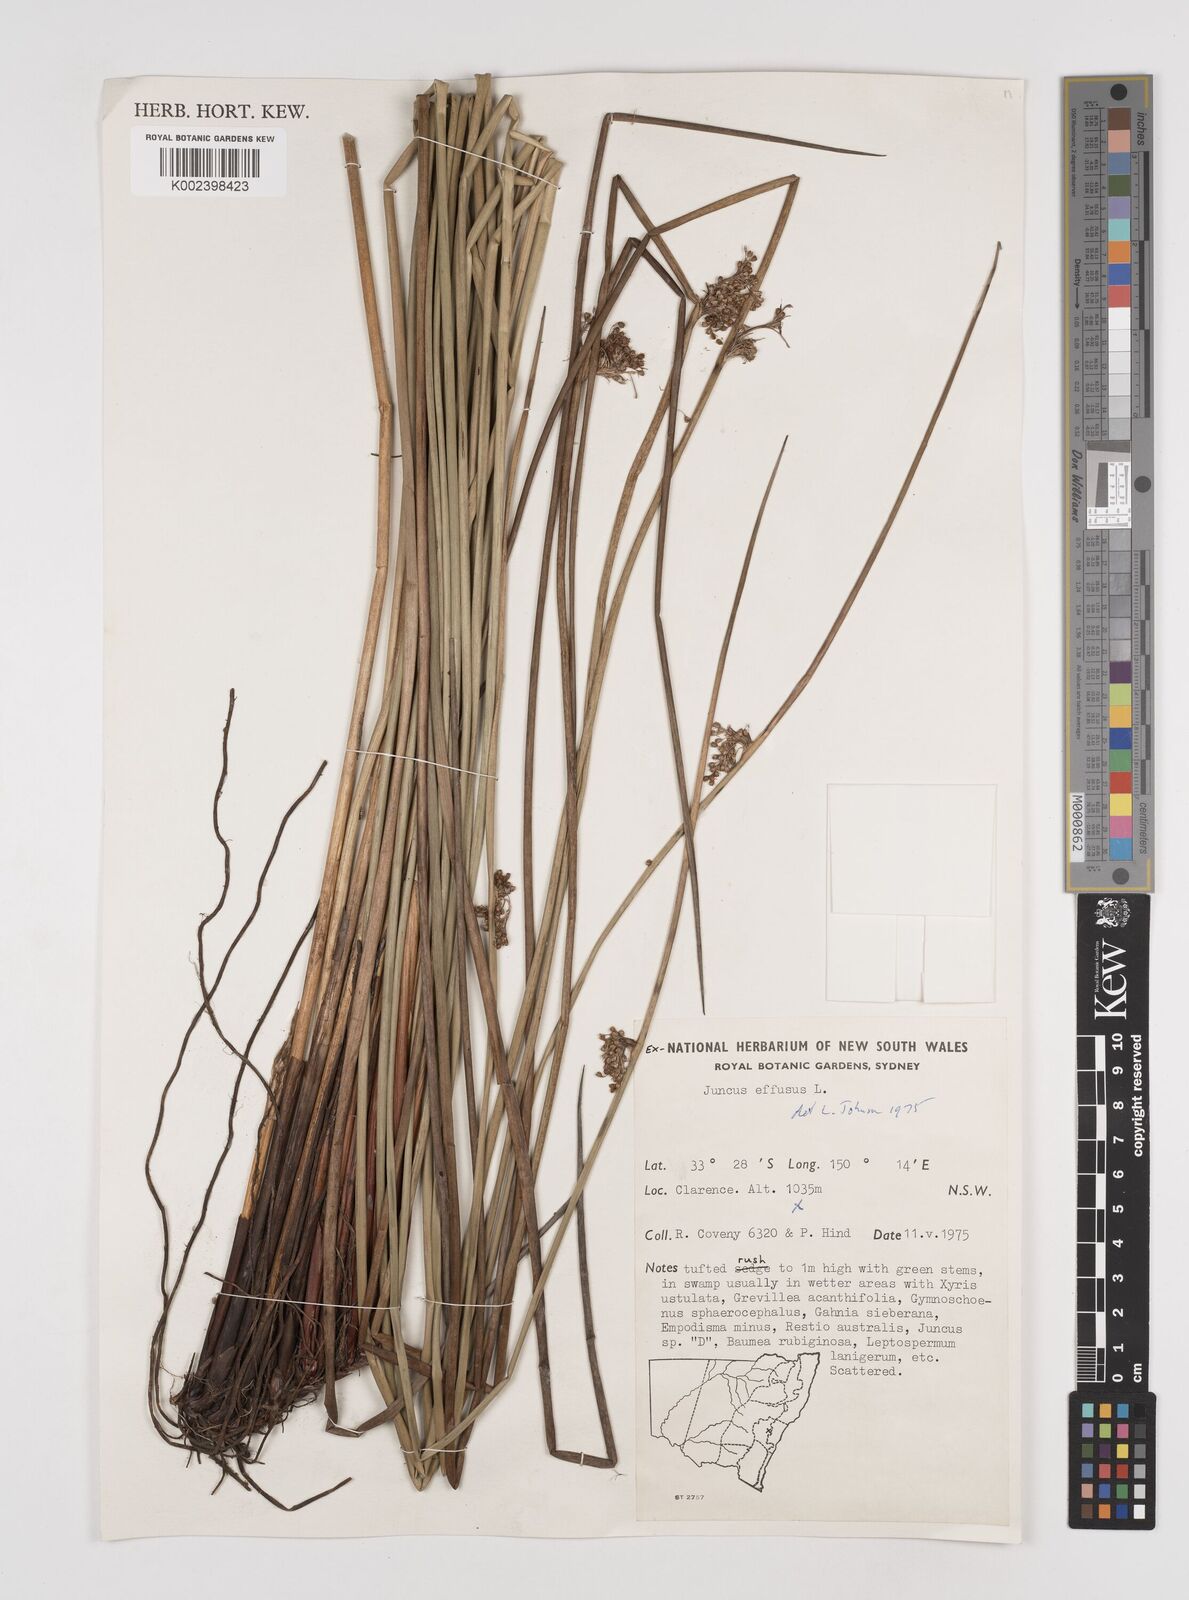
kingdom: Plantae
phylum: Tracheophyta
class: Liliopsida
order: Poales
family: Juncaceae
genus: Juncus
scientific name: Juncus effusus
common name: Soft rush
